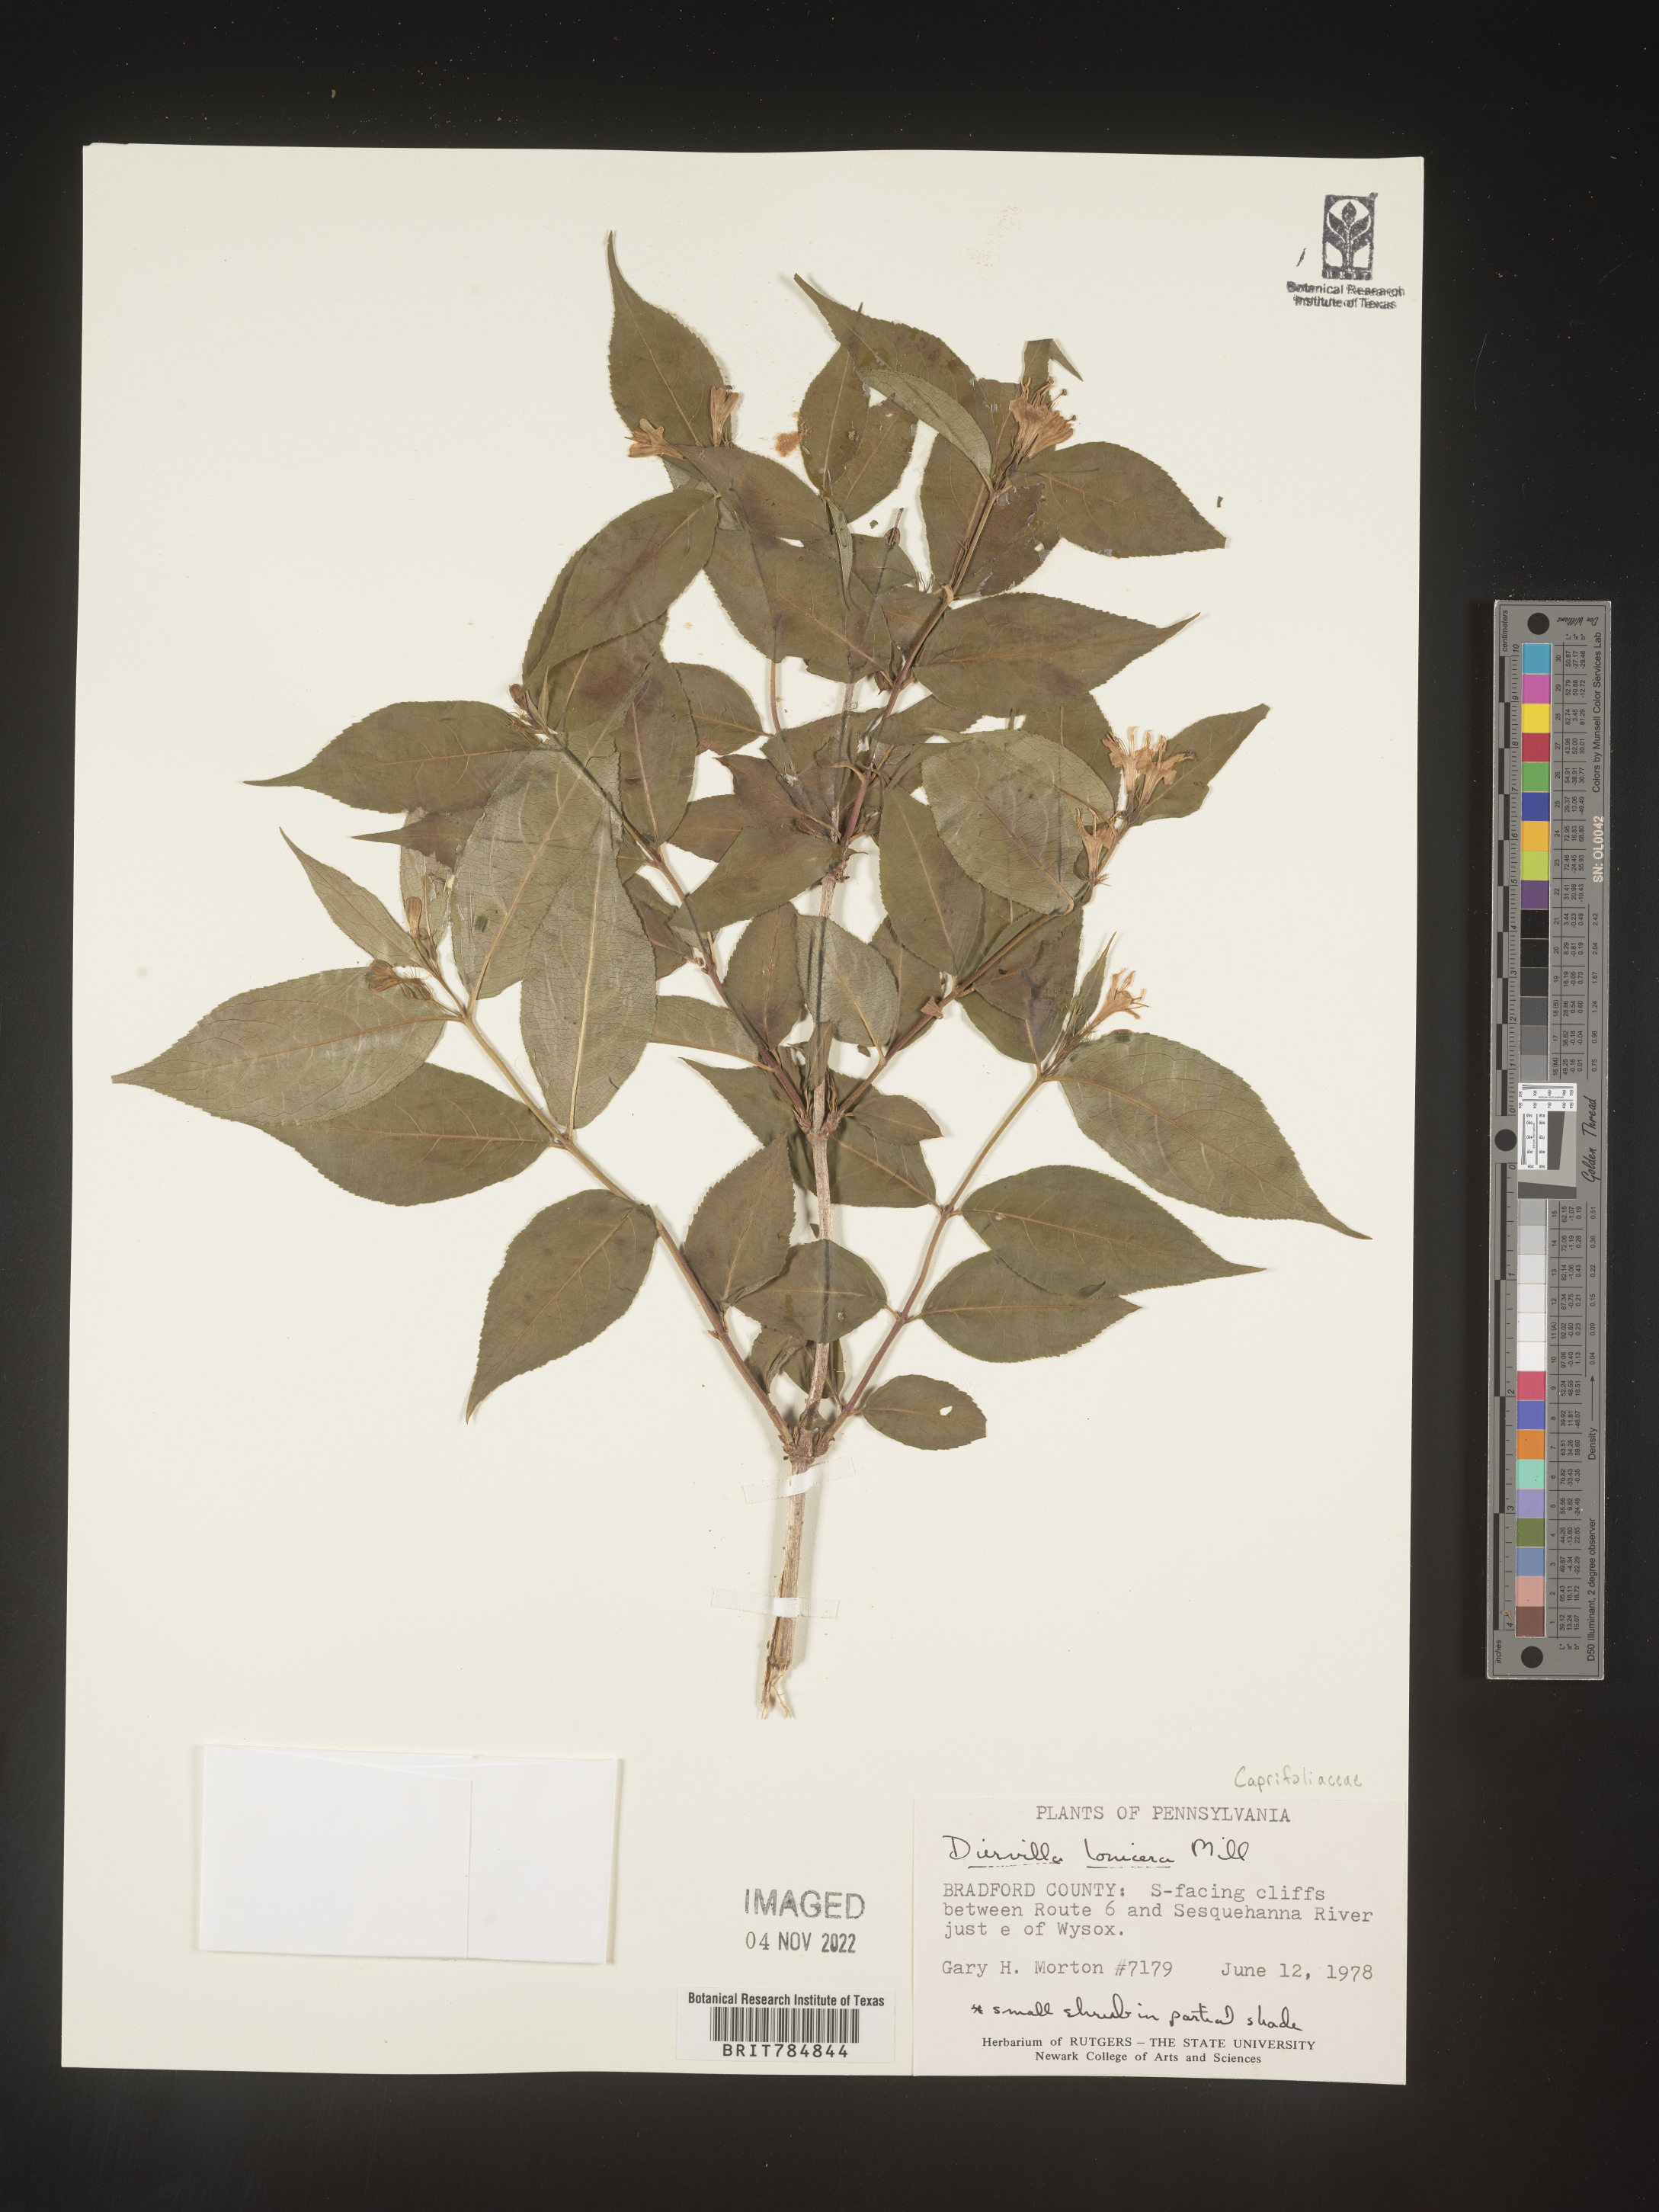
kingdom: Plantae
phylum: Tracheophyta
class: Magnoliopsida
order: Dipsacales
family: Caprifoliaceae
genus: Diervilla
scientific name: Diervilla lonicera
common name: Bush-honeysuckle
